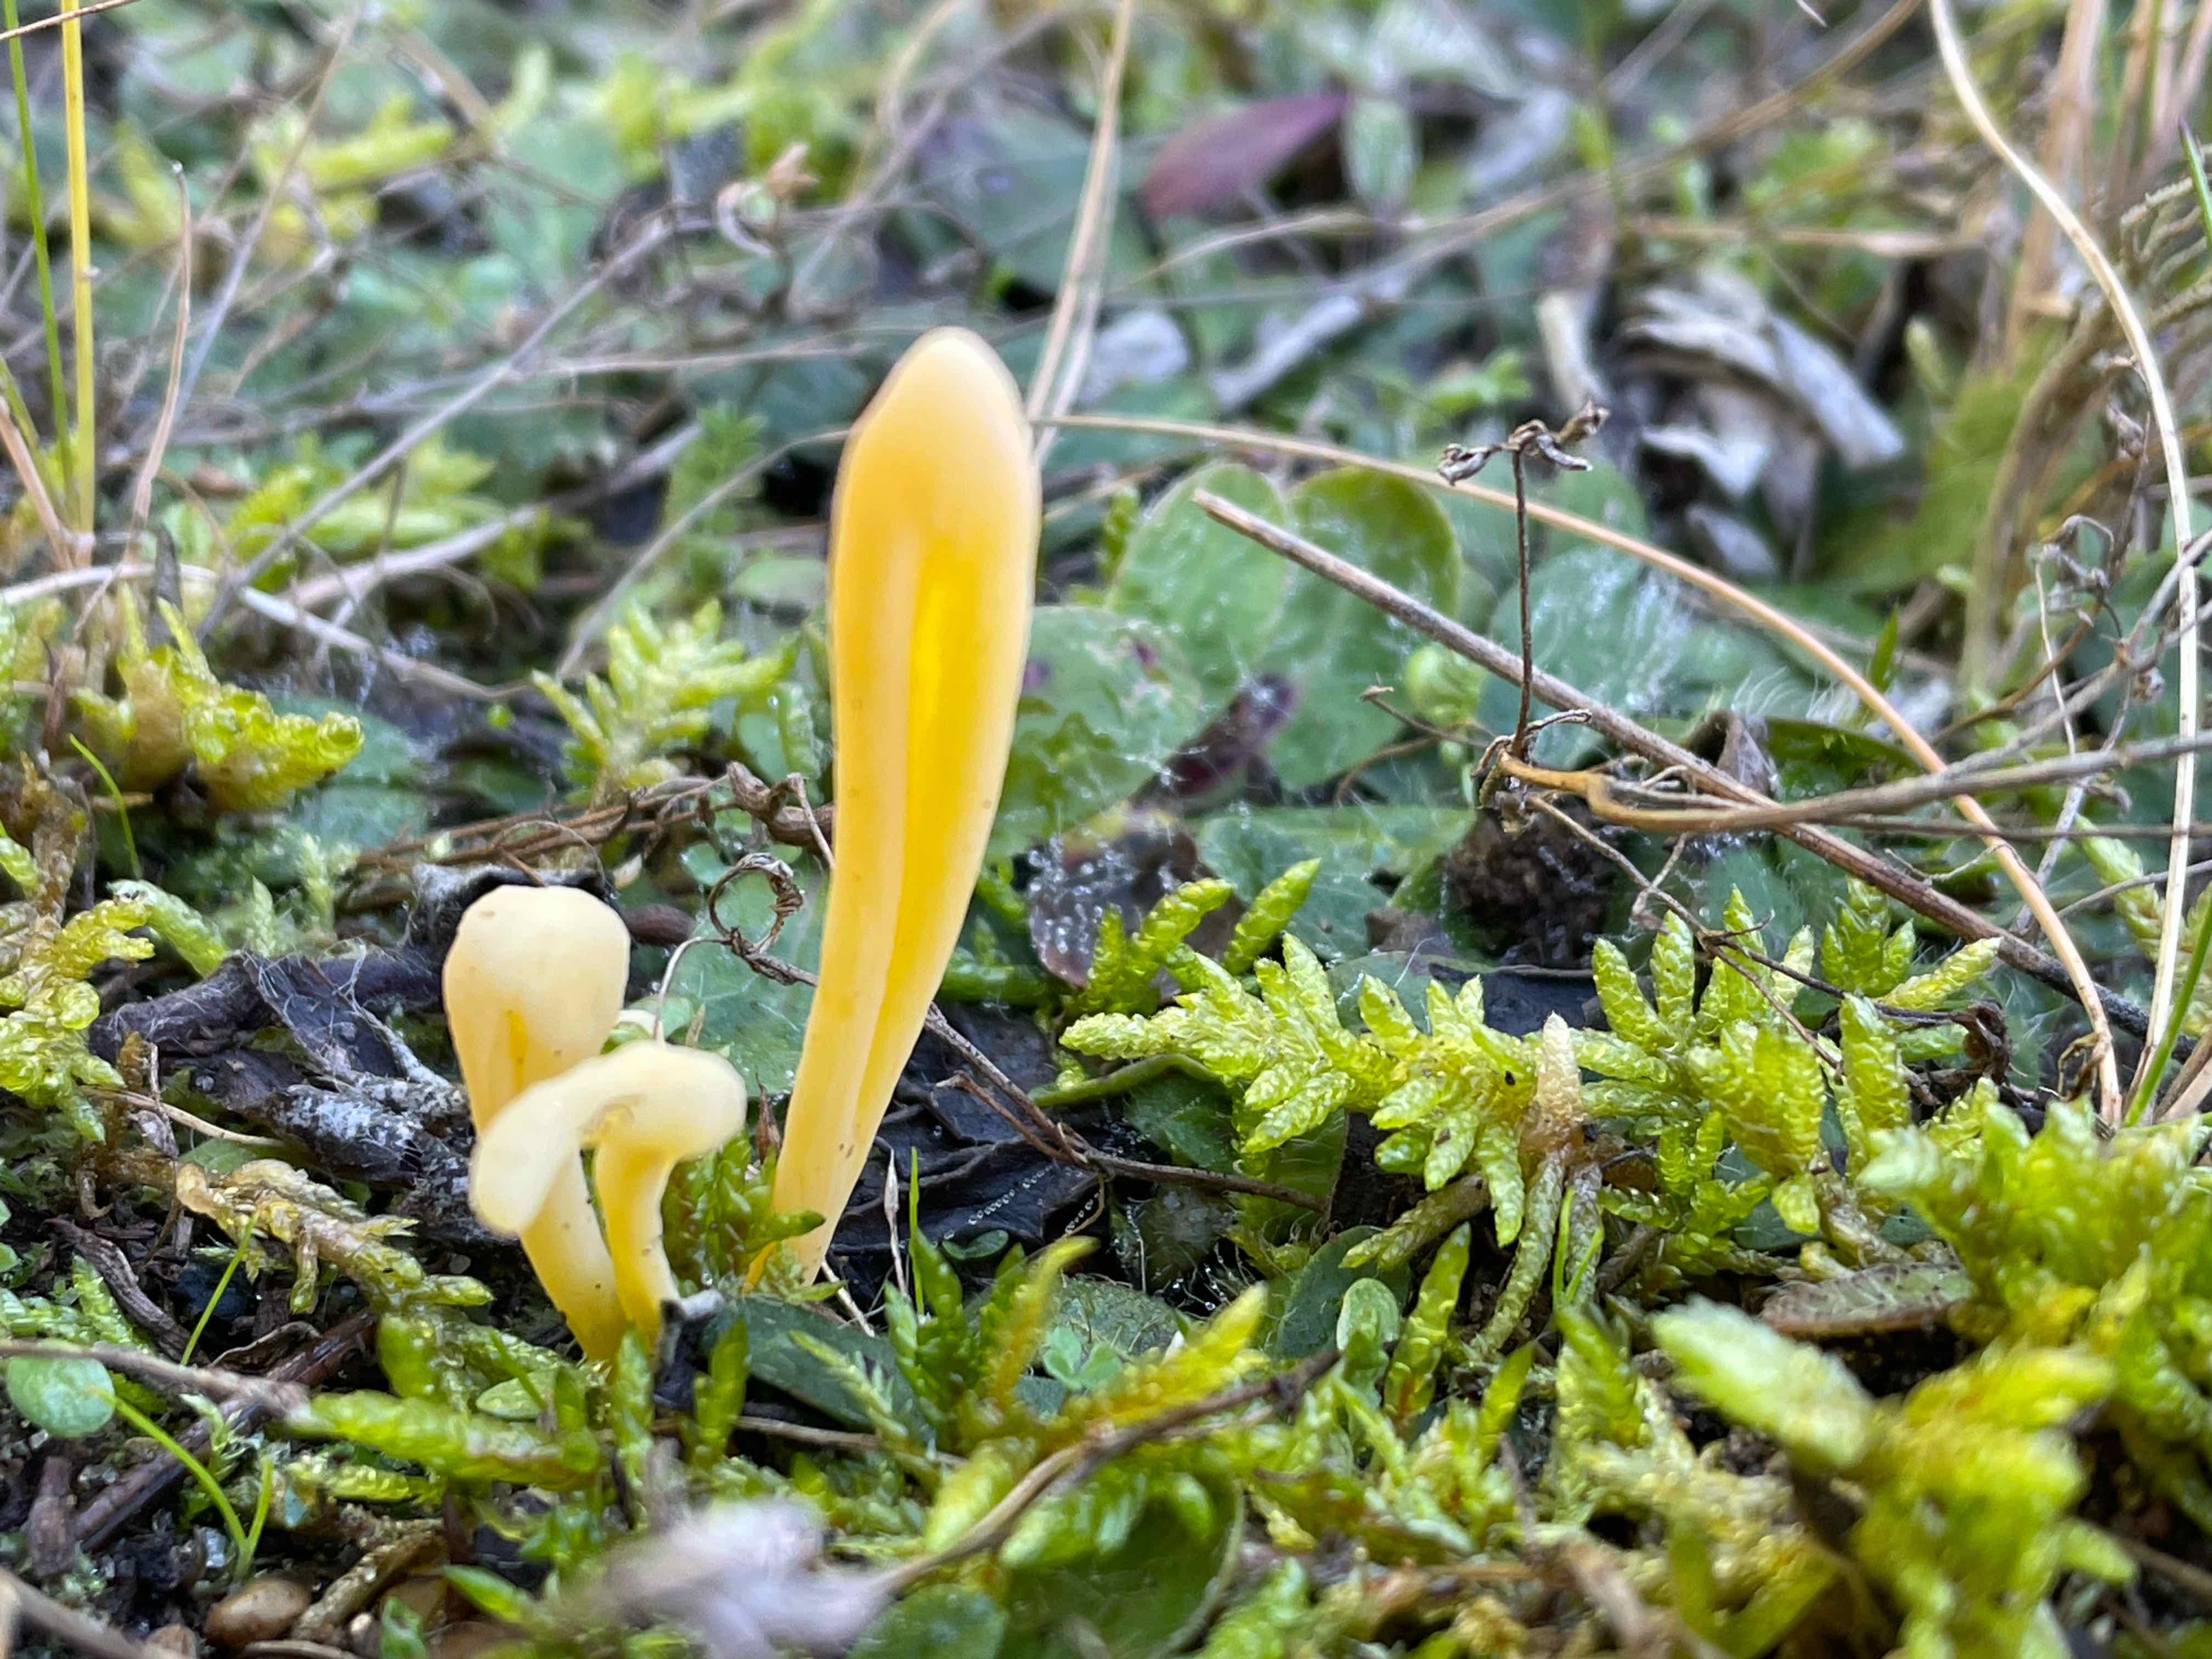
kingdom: Fungi
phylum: Basidiomycota
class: Agaricomycetes
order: Agaricales
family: Clavariaceae
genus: Clavaria
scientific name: Clavaria argillacea
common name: lerfarvet køllesvamp
